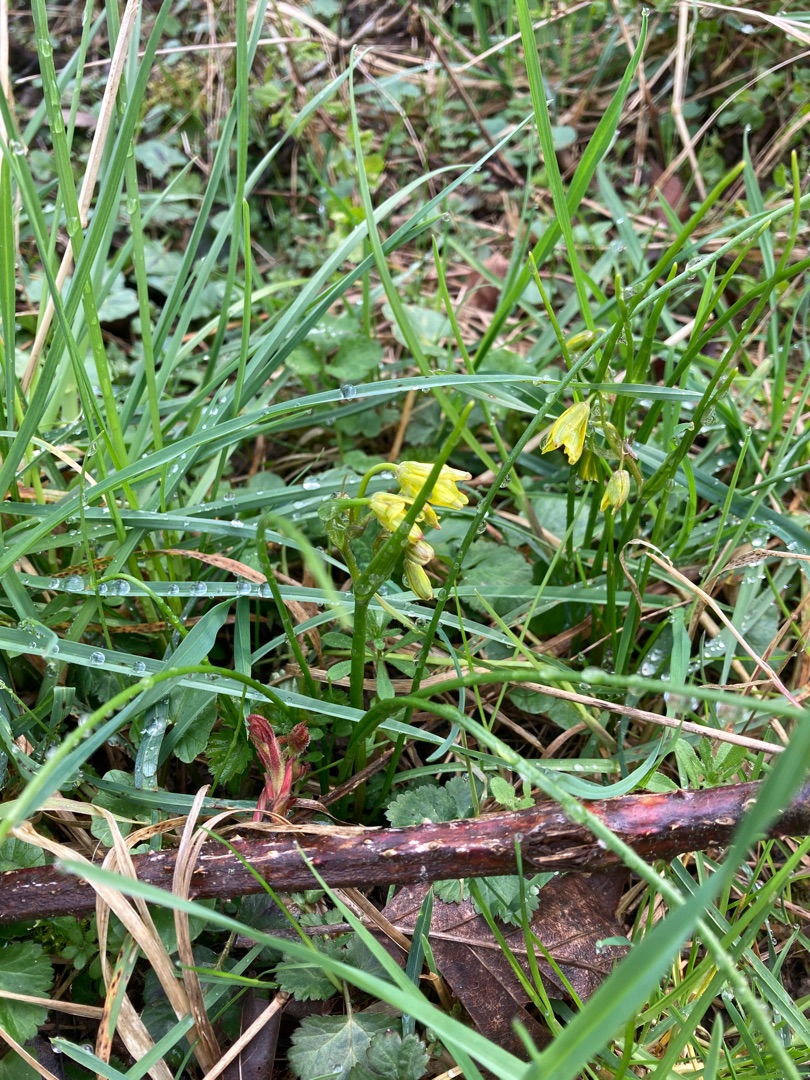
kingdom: Plantae
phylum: Tracheophyta
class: Liliopsida
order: Liliales
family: Liliaceae
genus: Gagea
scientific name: Gagea spathacea
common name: Hylster-guldstjerne
